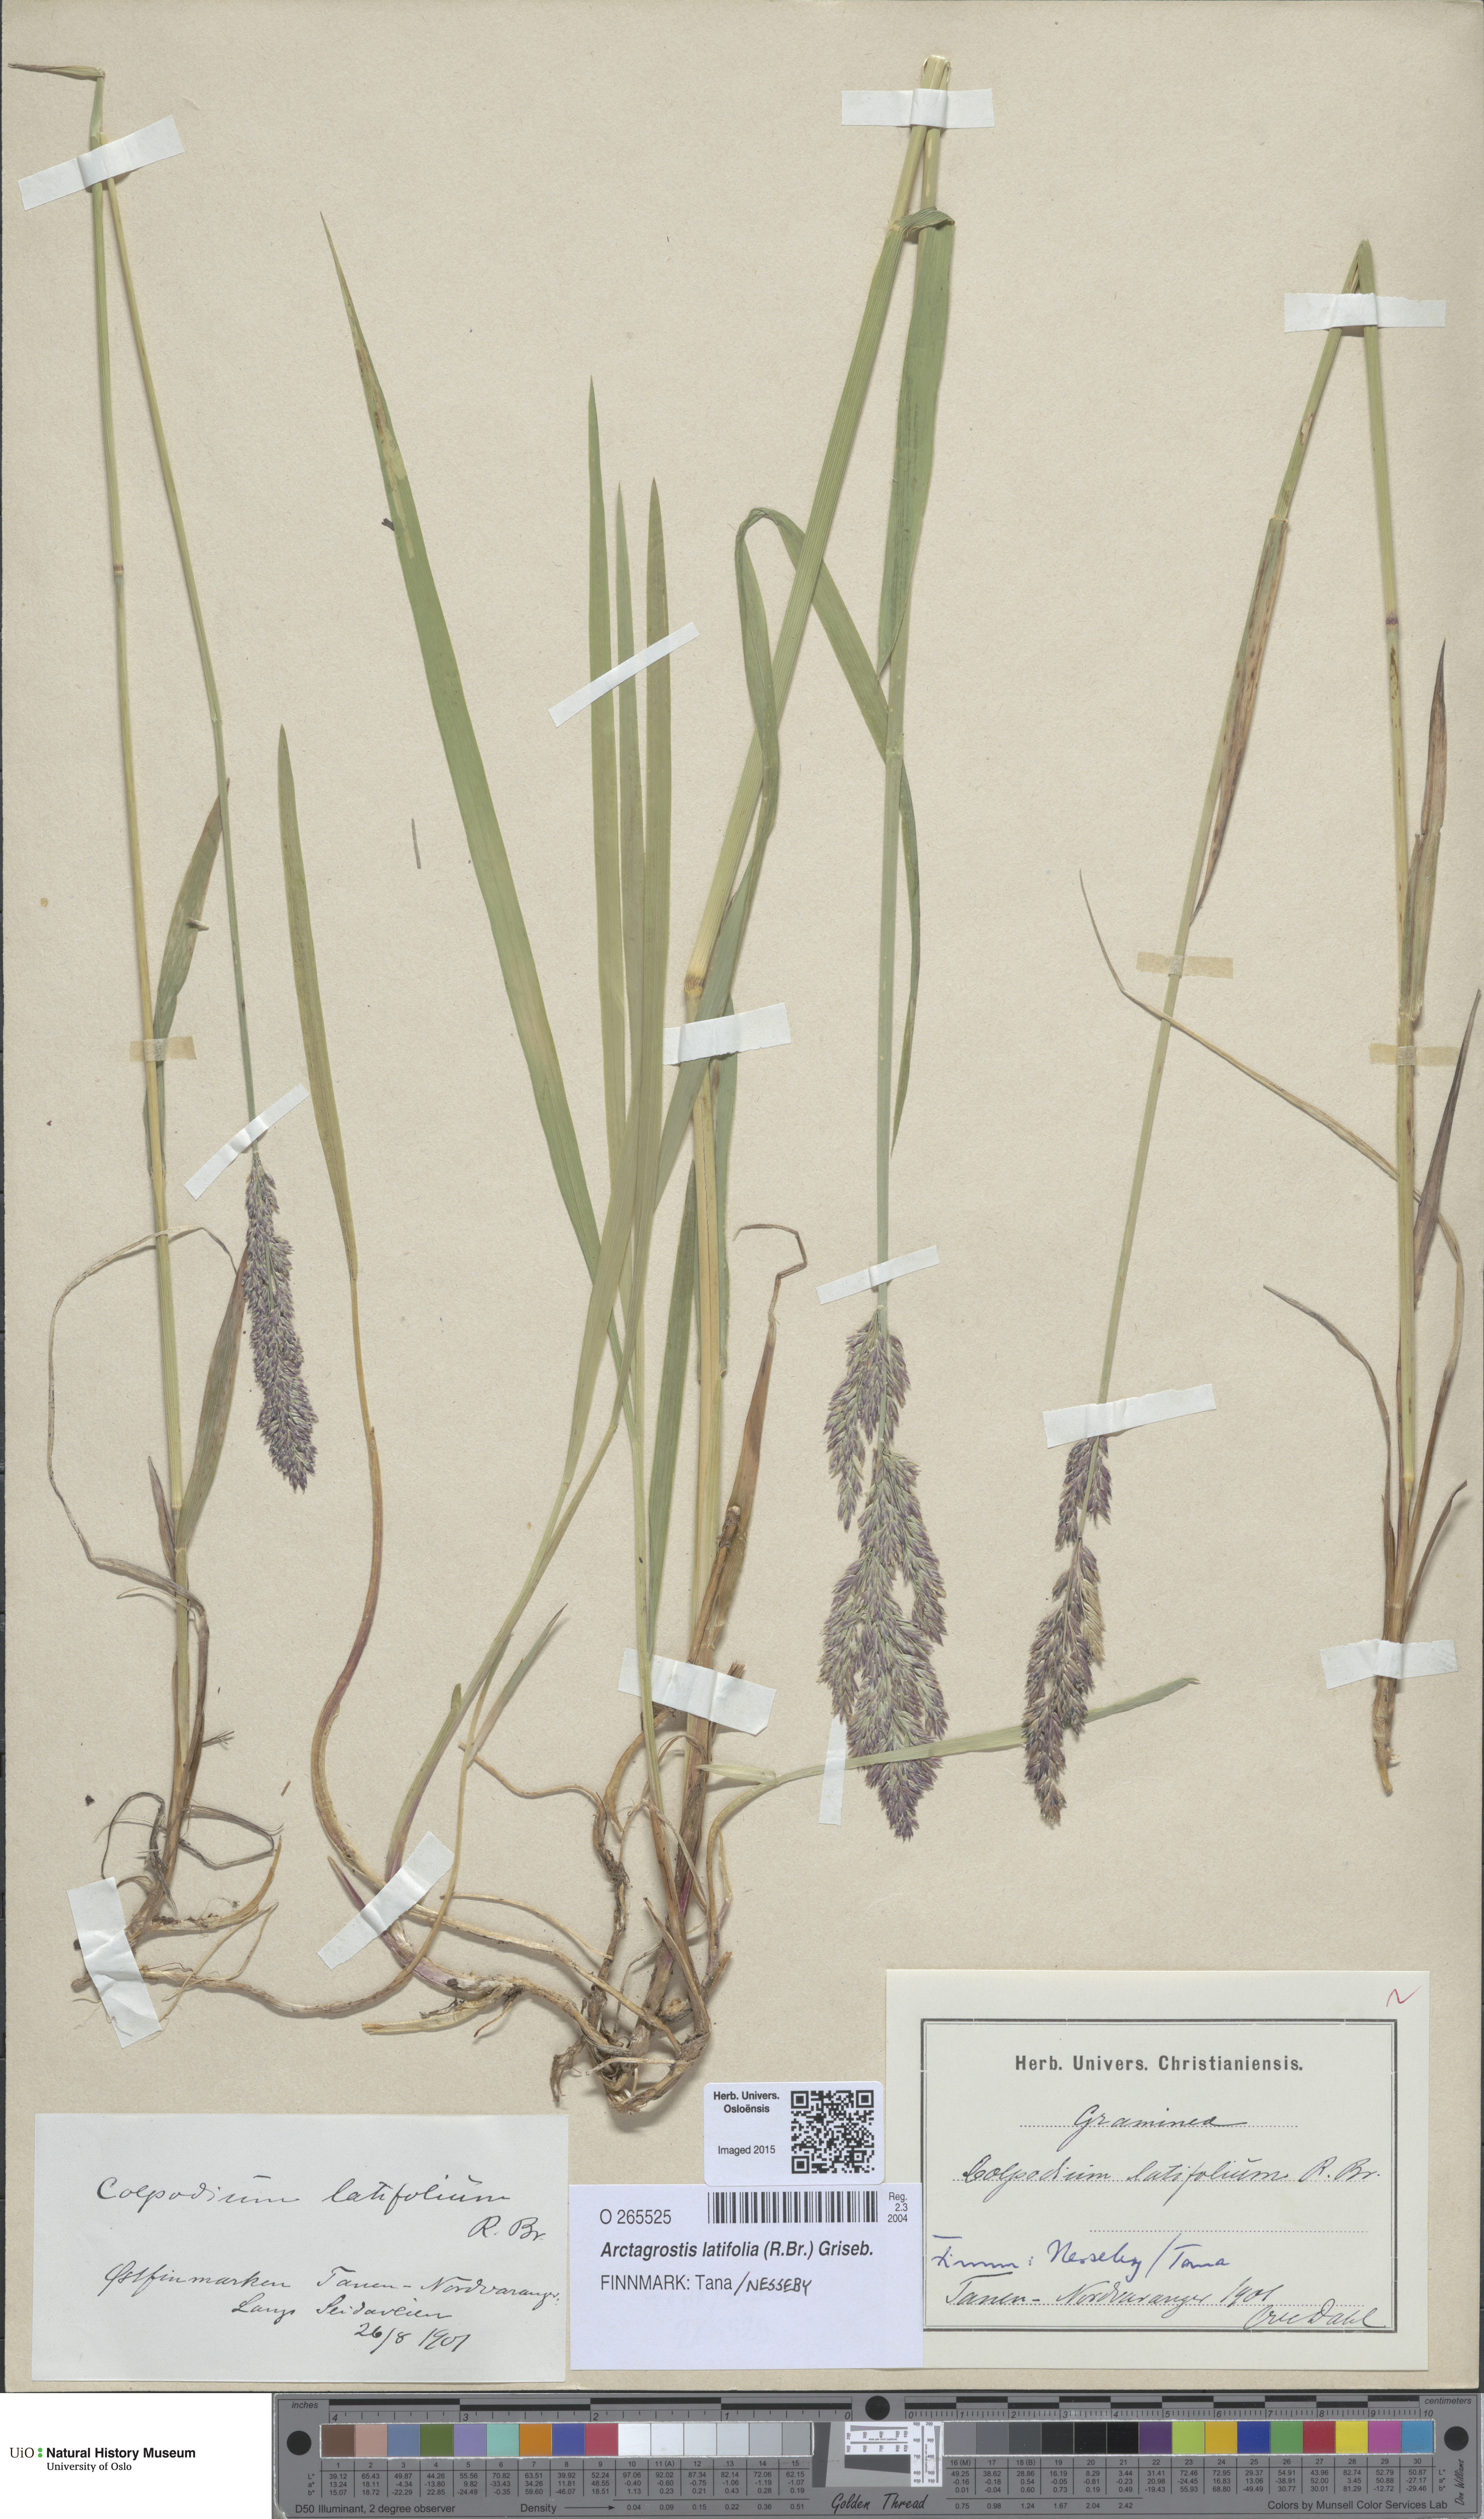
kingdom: Plantae
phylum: Tracheophyta
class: Liliopsida
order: Poales
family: Poaceae
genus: Arctagrostis
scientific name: Arctagrostis latifolia
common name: Arctic grass
